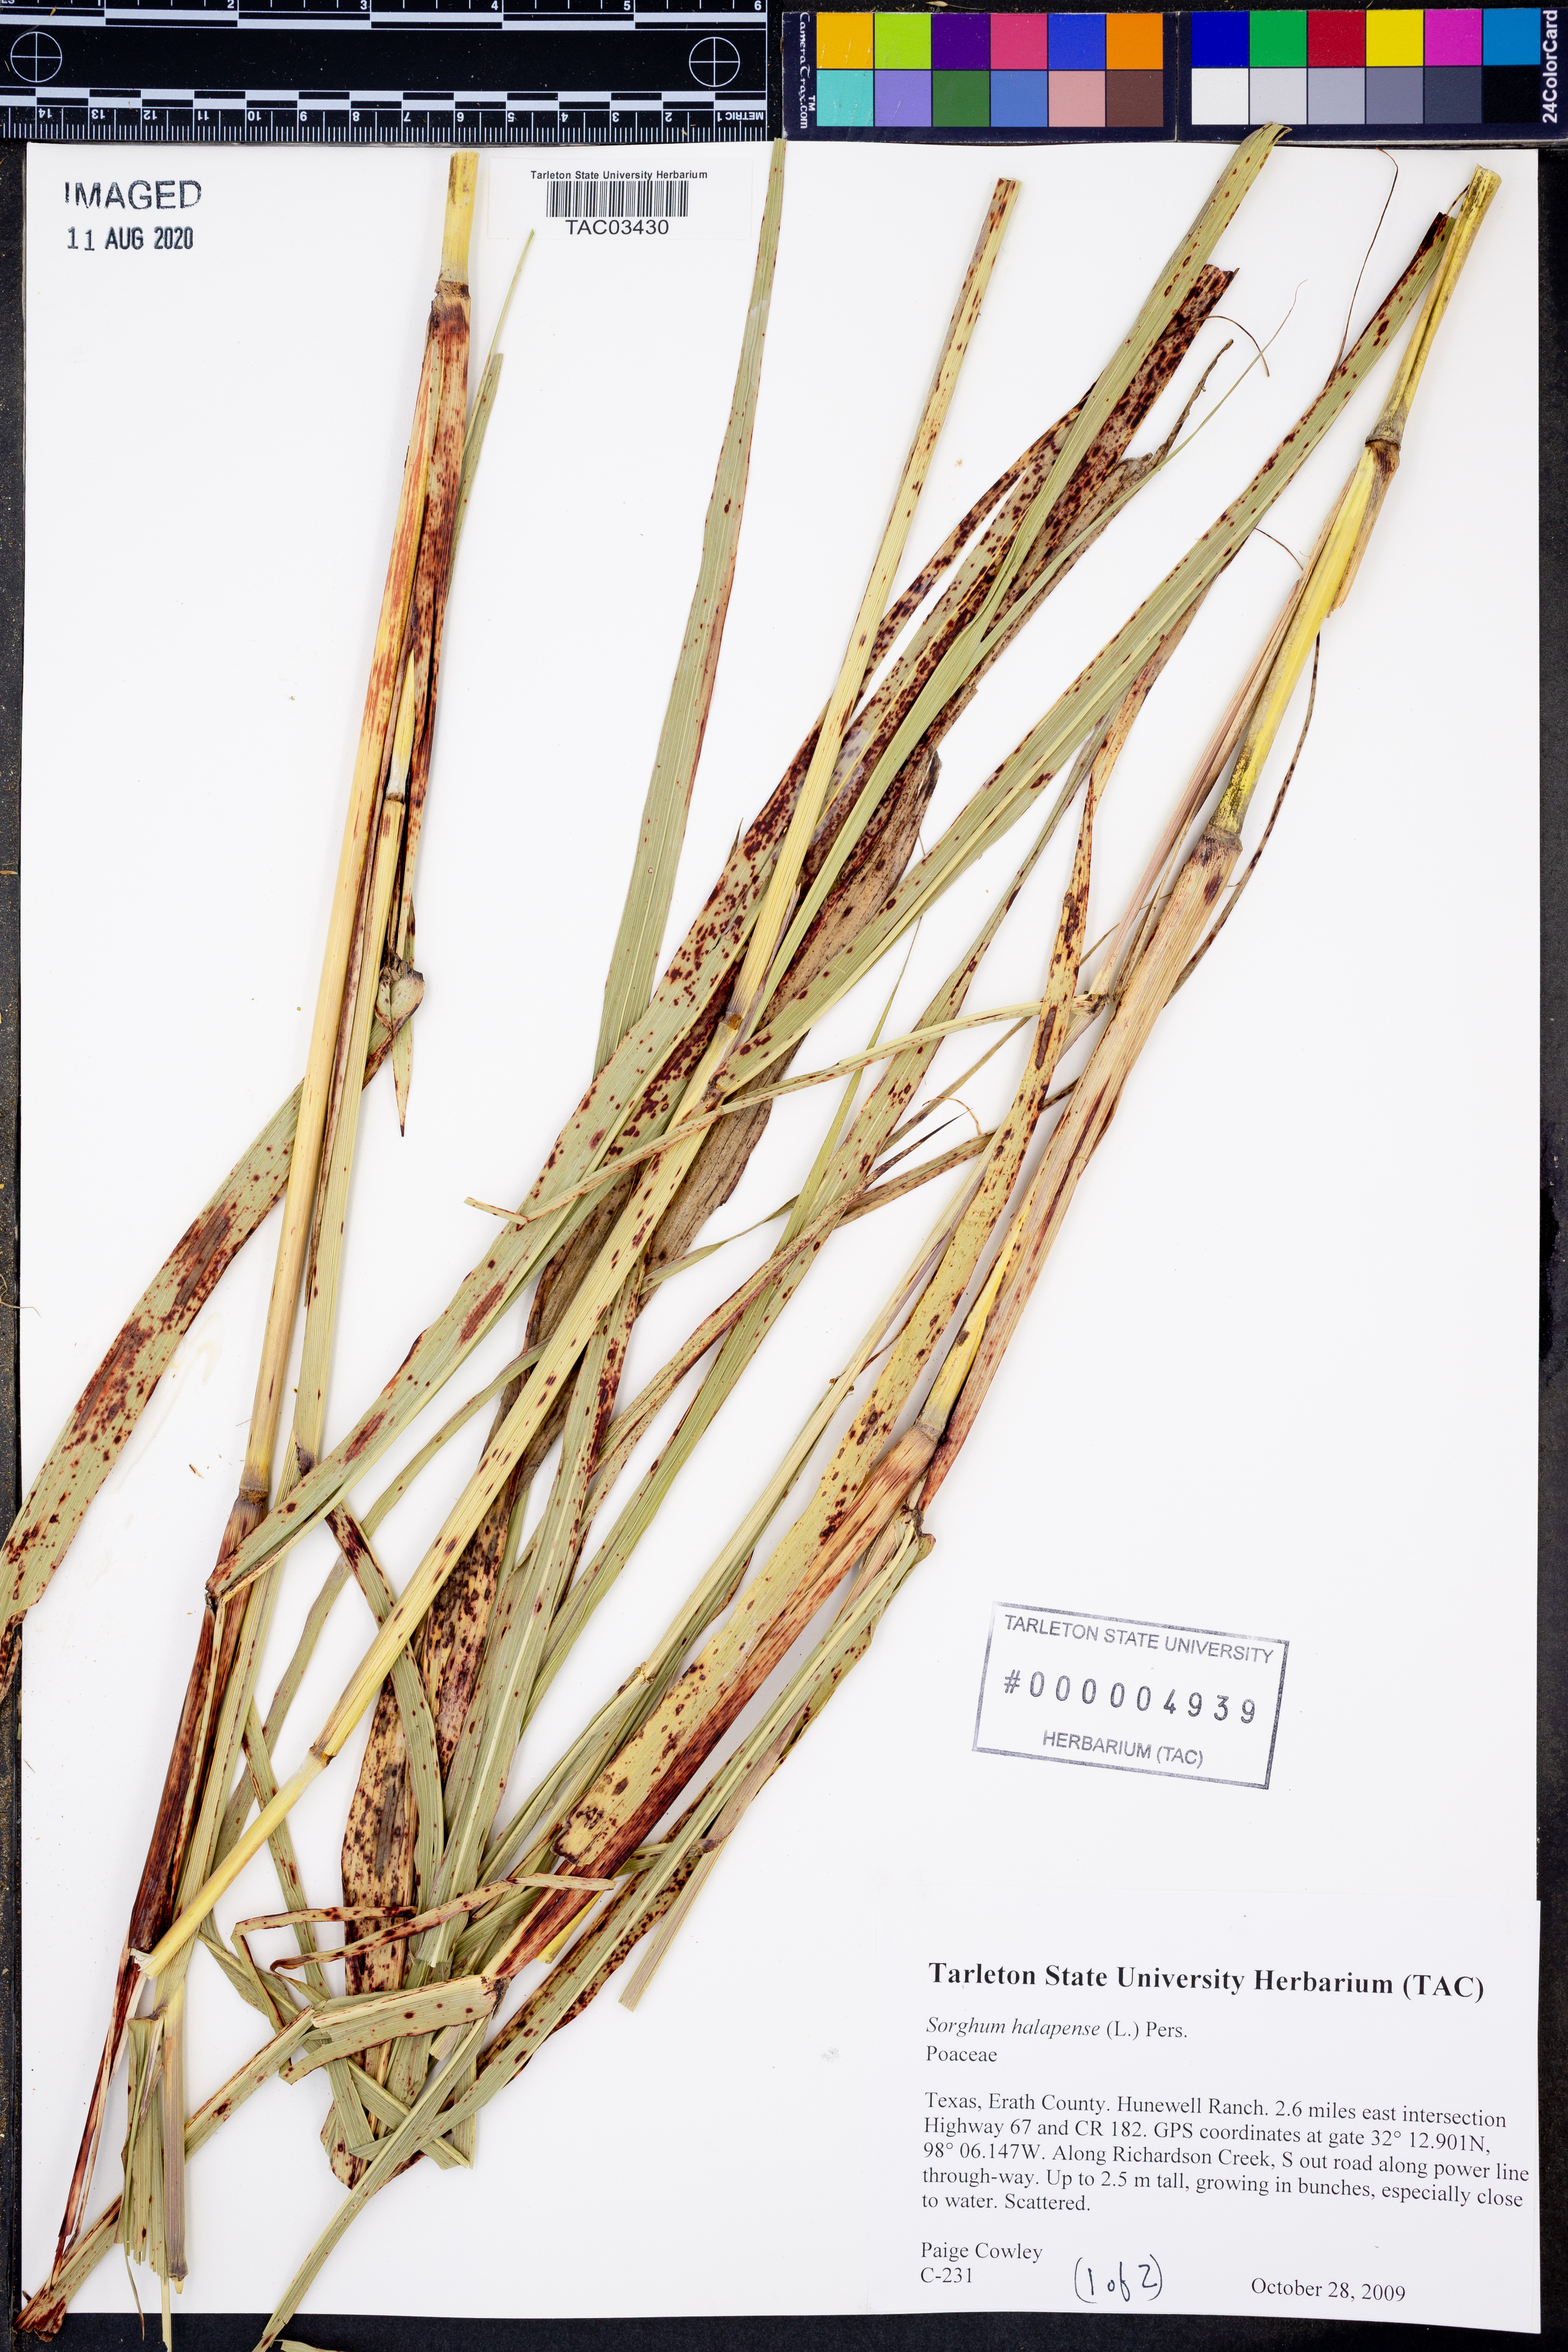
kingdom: Plantae
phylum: Tracheophyta
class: Liliopsida
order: Poales
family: Poaceae
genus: Sorghum
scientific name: Sorghum halepense
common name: Johnson-grass
